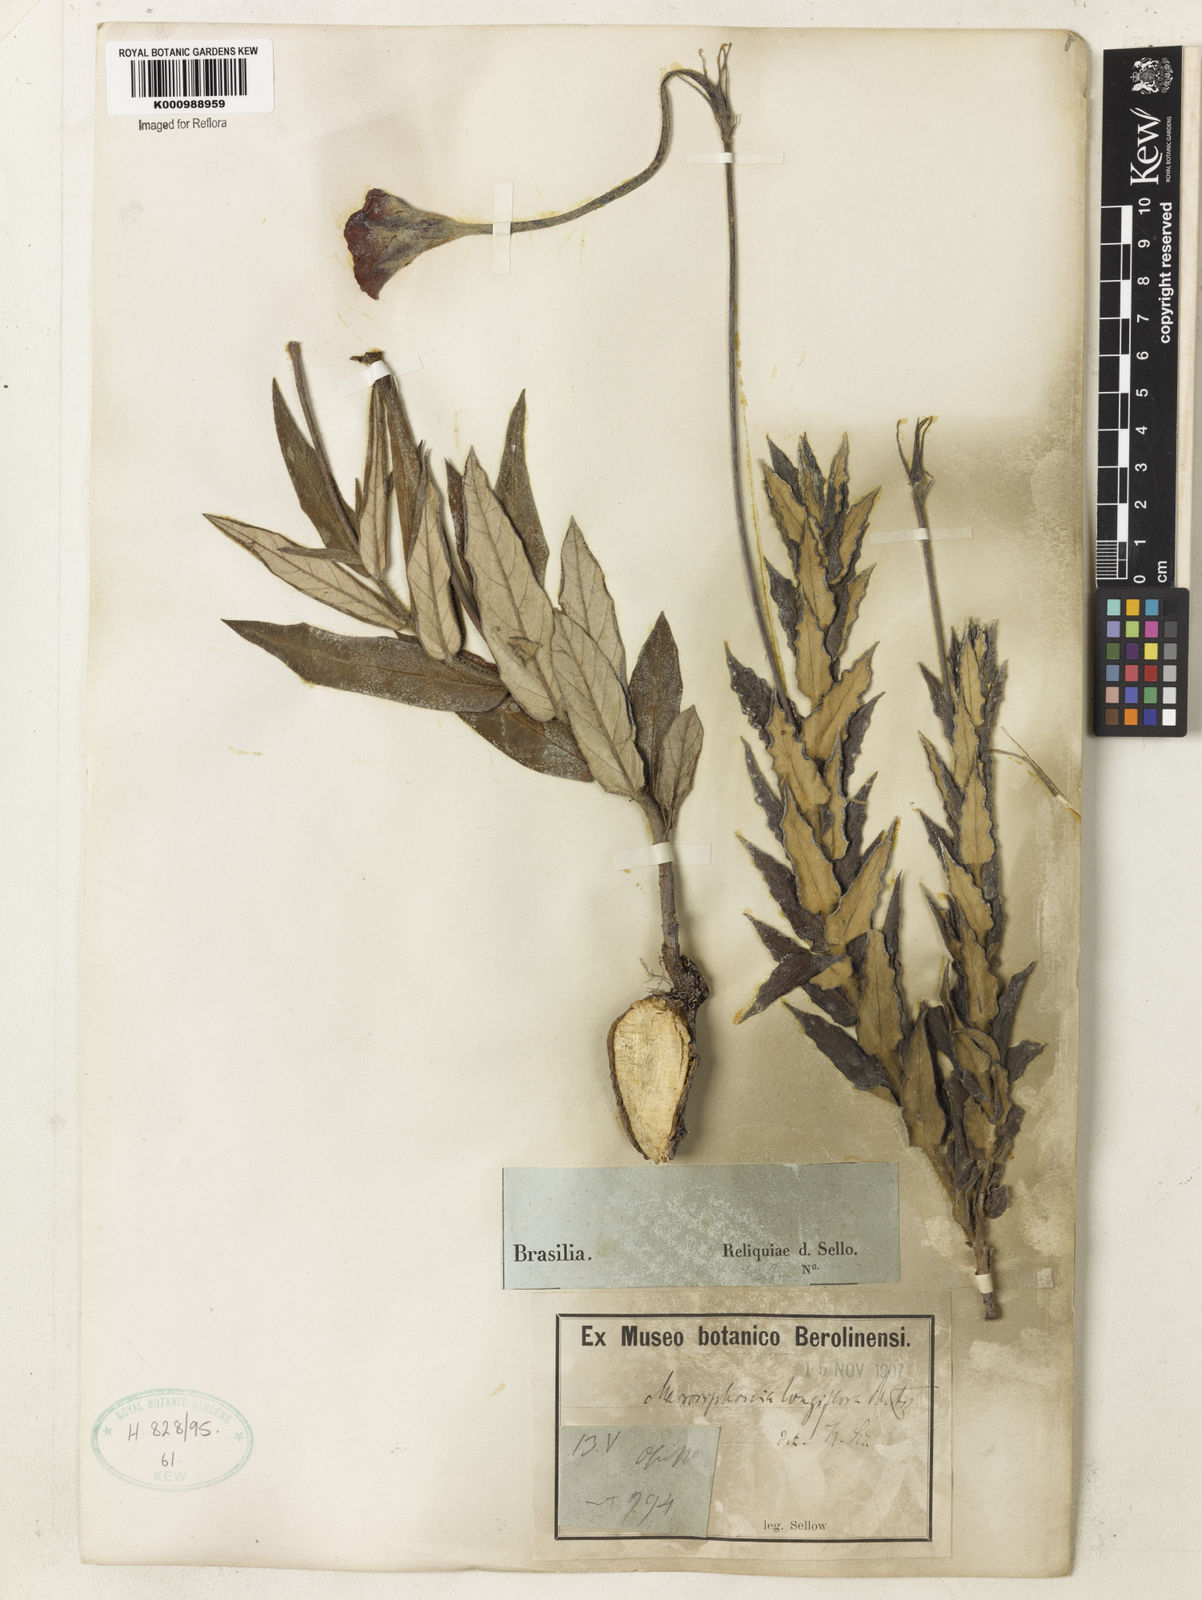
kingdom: Plantae
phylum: Tracheophyta
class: Magnoliopsida
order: Gentianales
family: Apocynaceae
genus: Mandevilla
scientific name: Mandevilla longiflora
